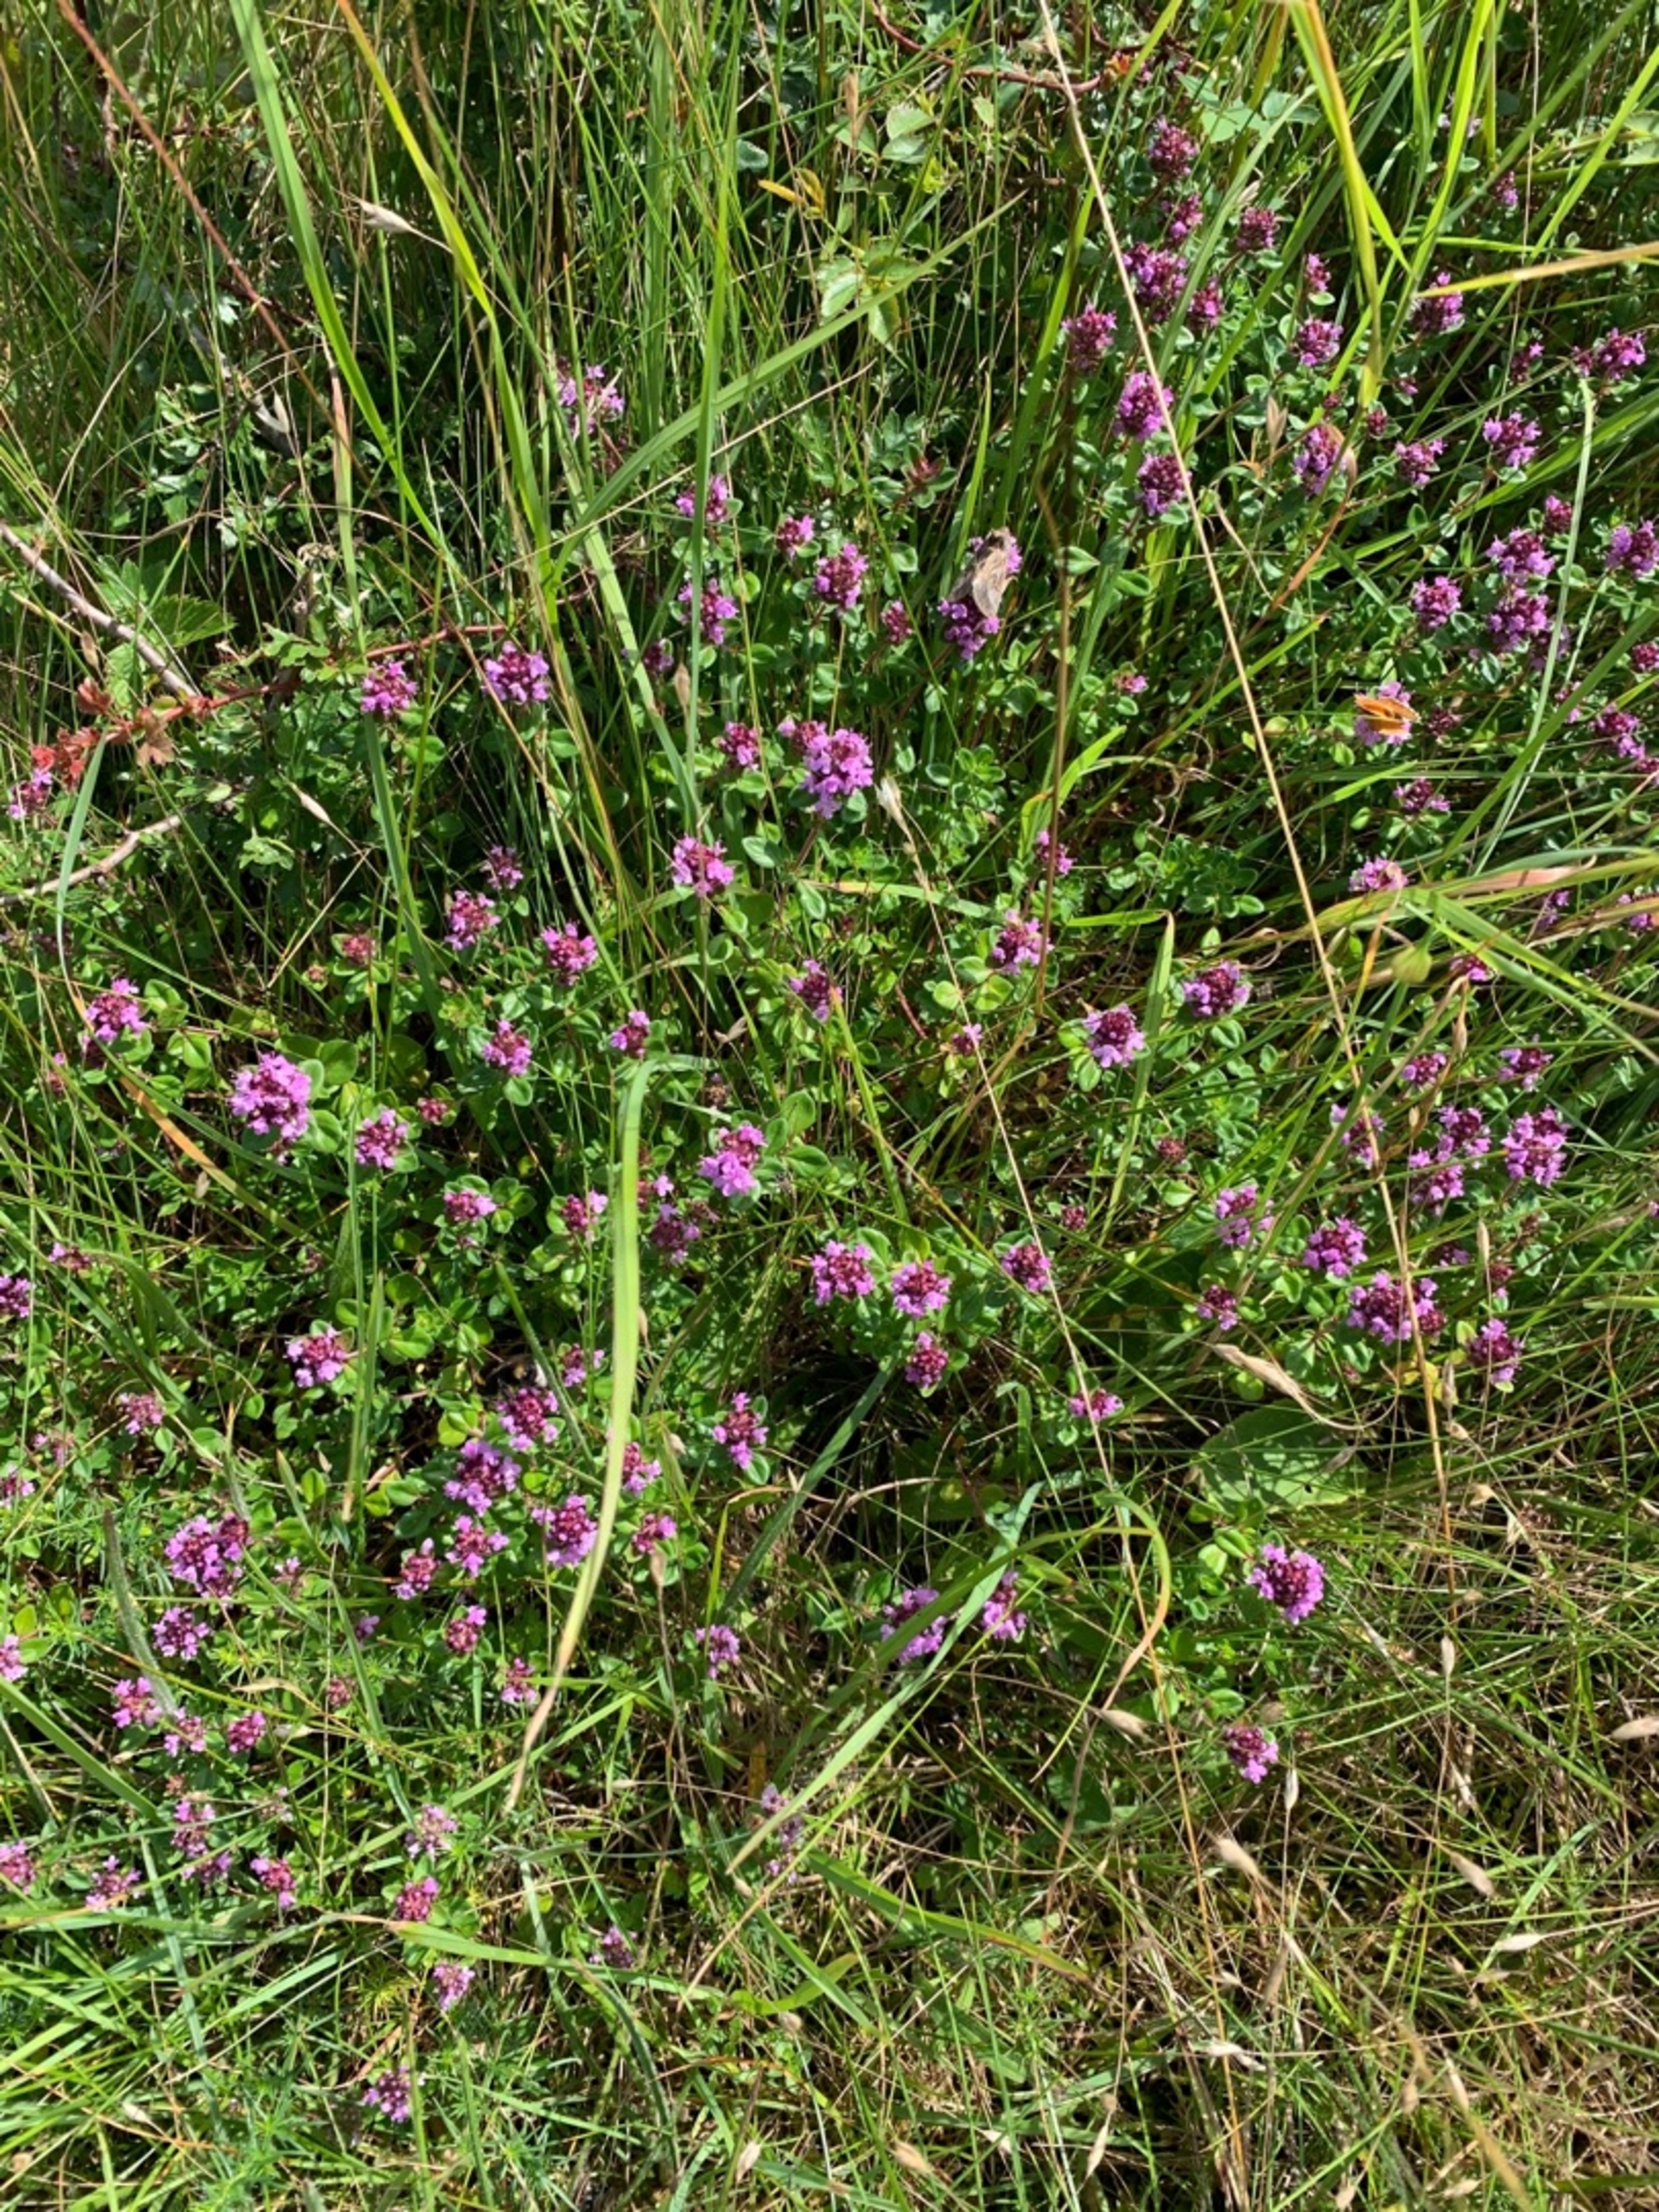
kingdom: Plantae
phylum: Tracheophyta
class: Magnoliopsida
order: Lamiales
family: Lamiaceae
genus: Thymus
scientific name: Thymus pulegioides
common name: Bredbladet timian
